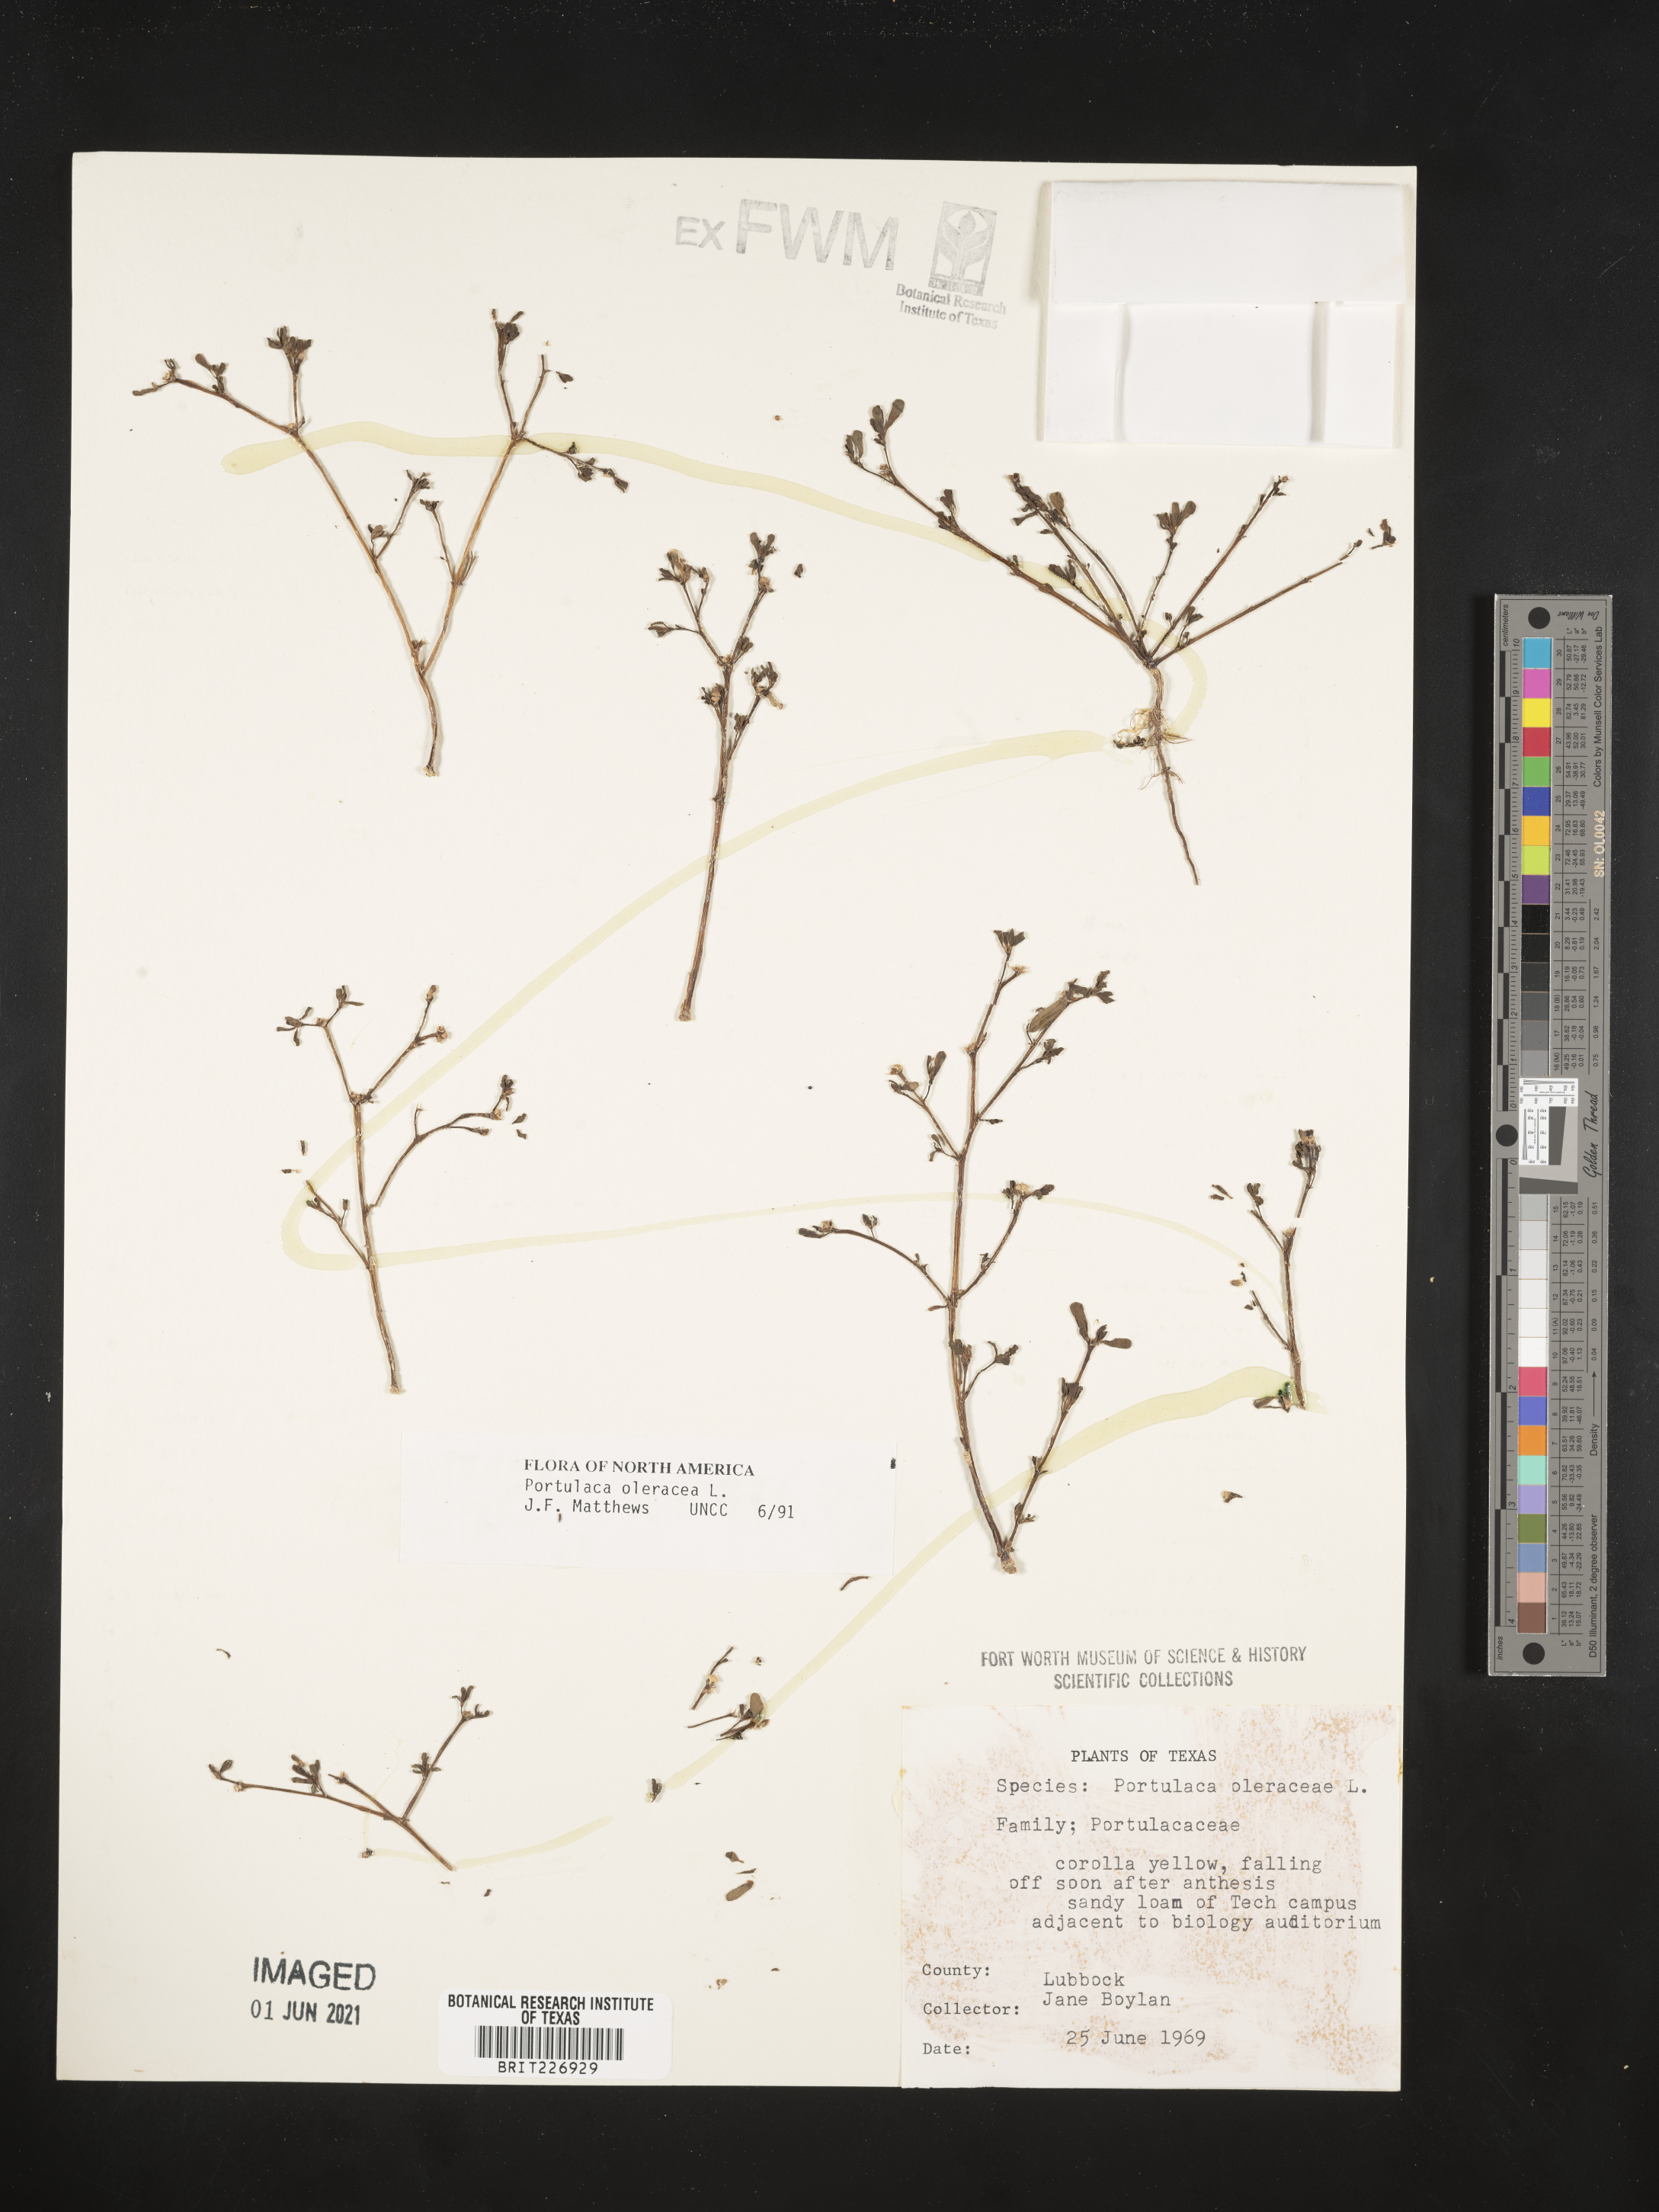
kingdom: Plantae
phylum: Tracheophyta
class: Magnoliopsida
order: Caryophyllales
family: Portulacaceae
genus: Portulaca
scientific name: Portulaca oleracea
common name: Common purslane
